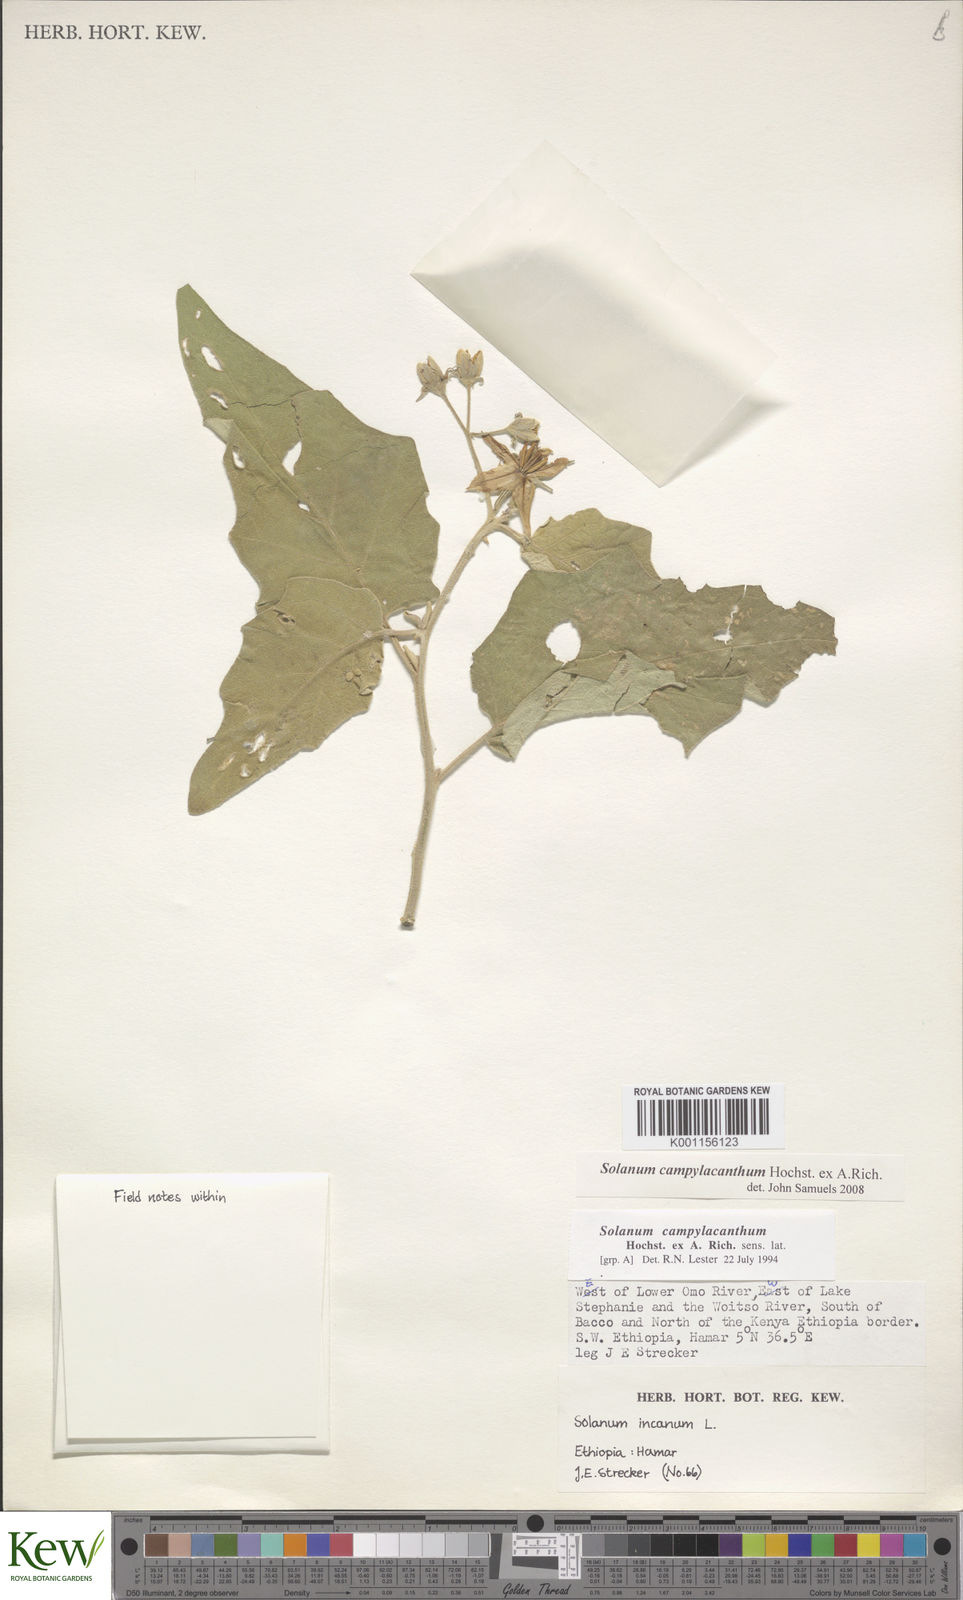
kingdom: Plantae
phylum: Tracheophyta
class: Magnoliopsida
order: Solanales
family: Solanaceae
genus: Solanum
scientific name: Solanum campylacanthum
